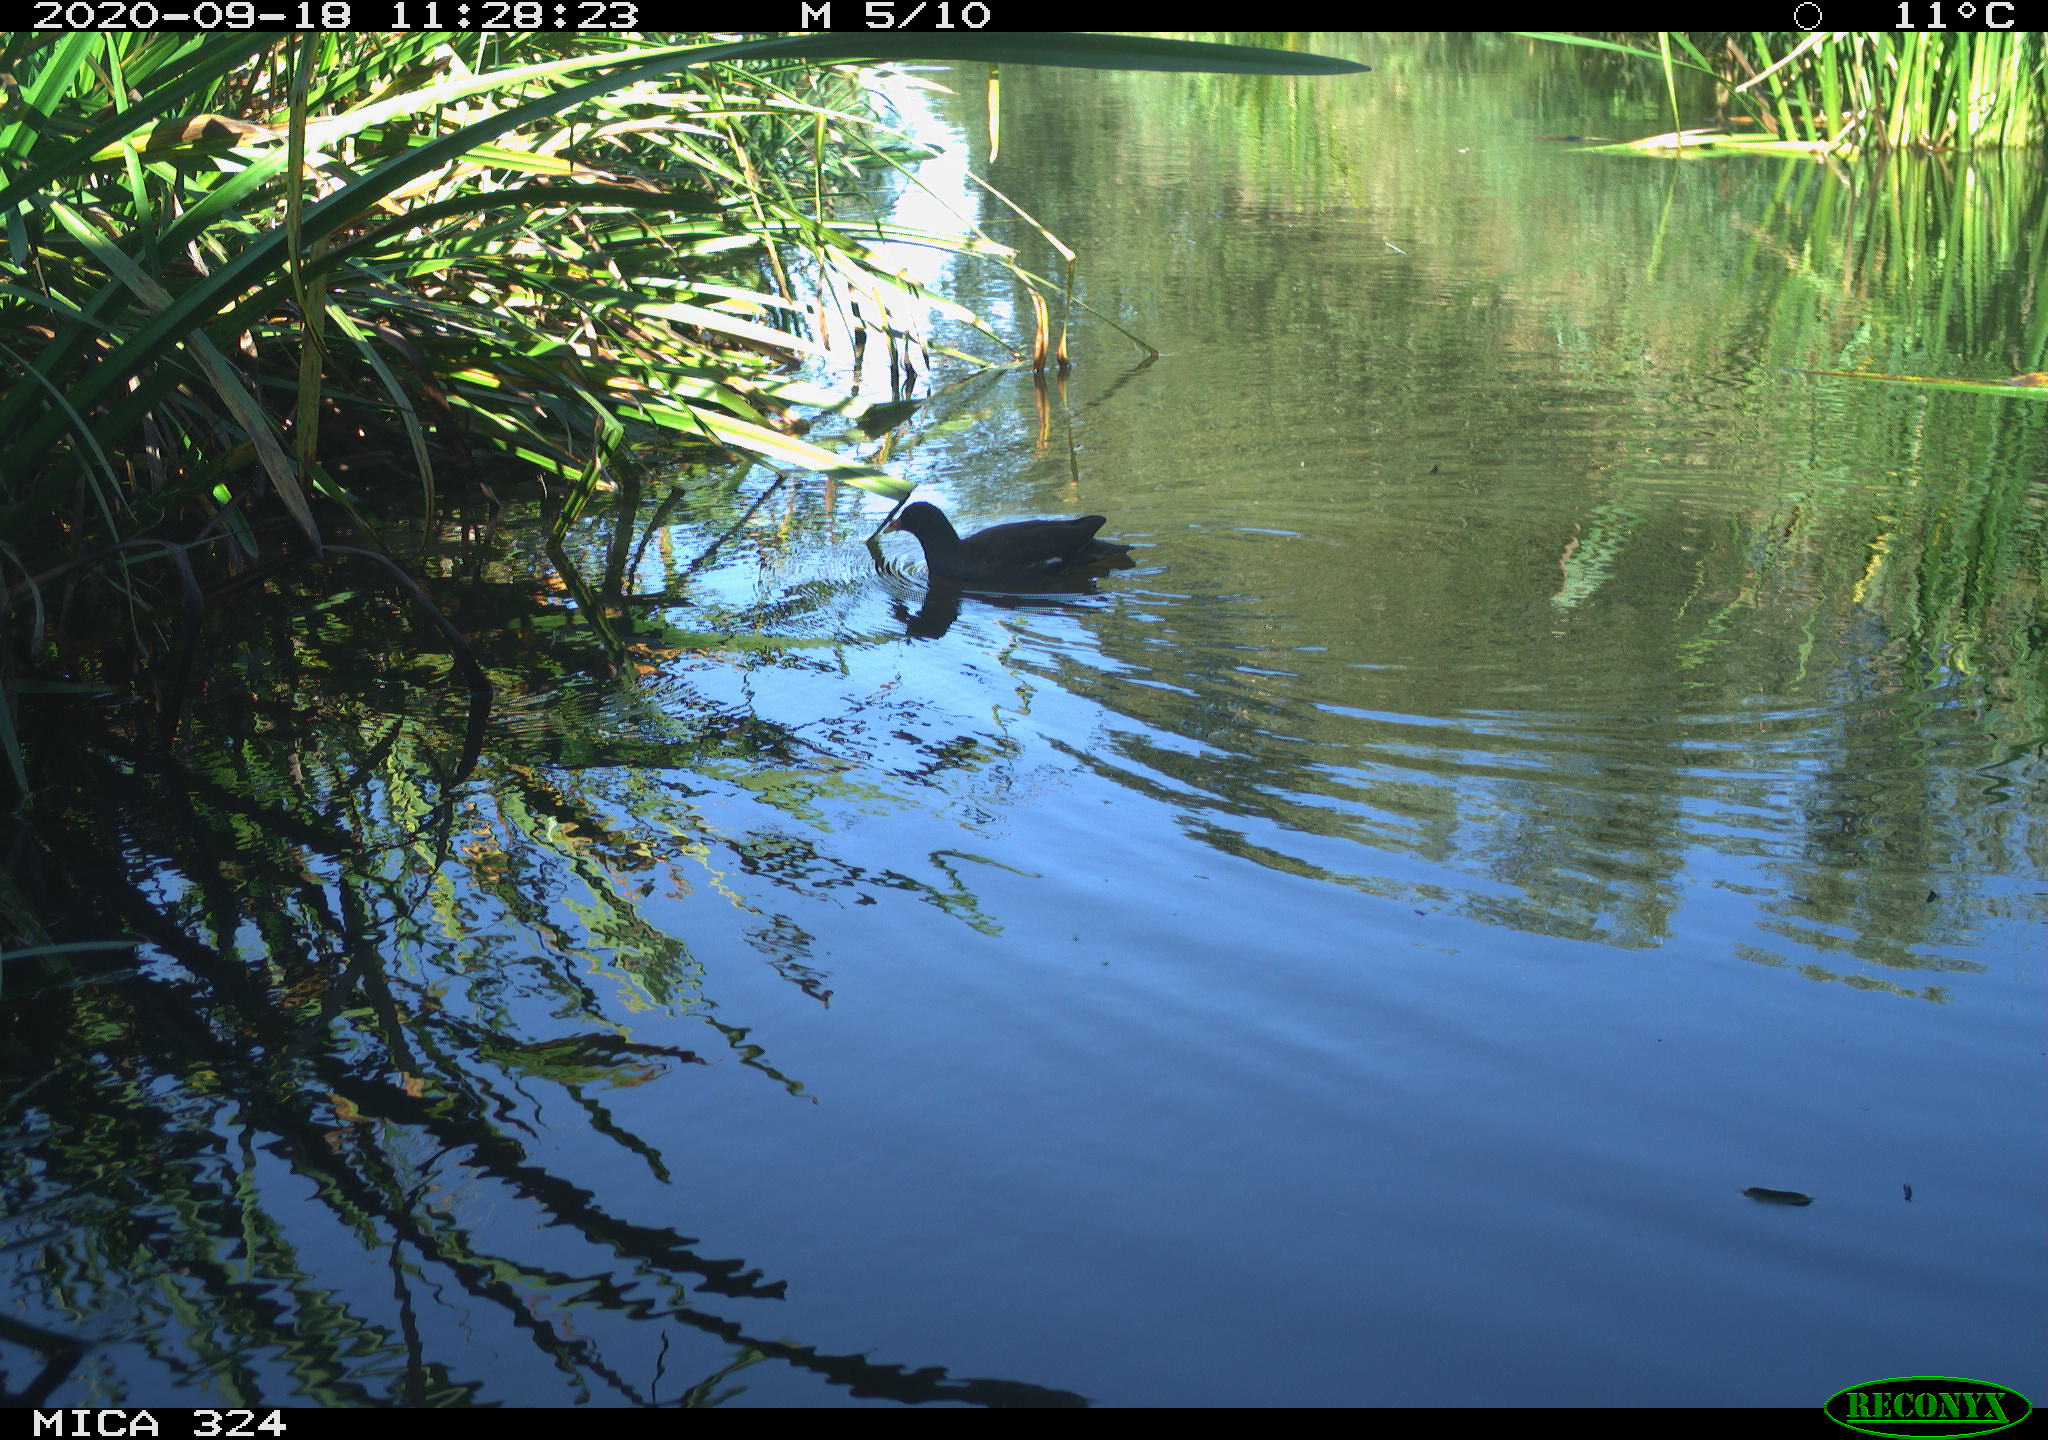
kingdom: Animalia
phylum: Chordata
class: Aves
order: Gruiformes
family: Rallidae
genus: Gallinula
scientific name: Gallinula chloropus
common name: Common moorhen
